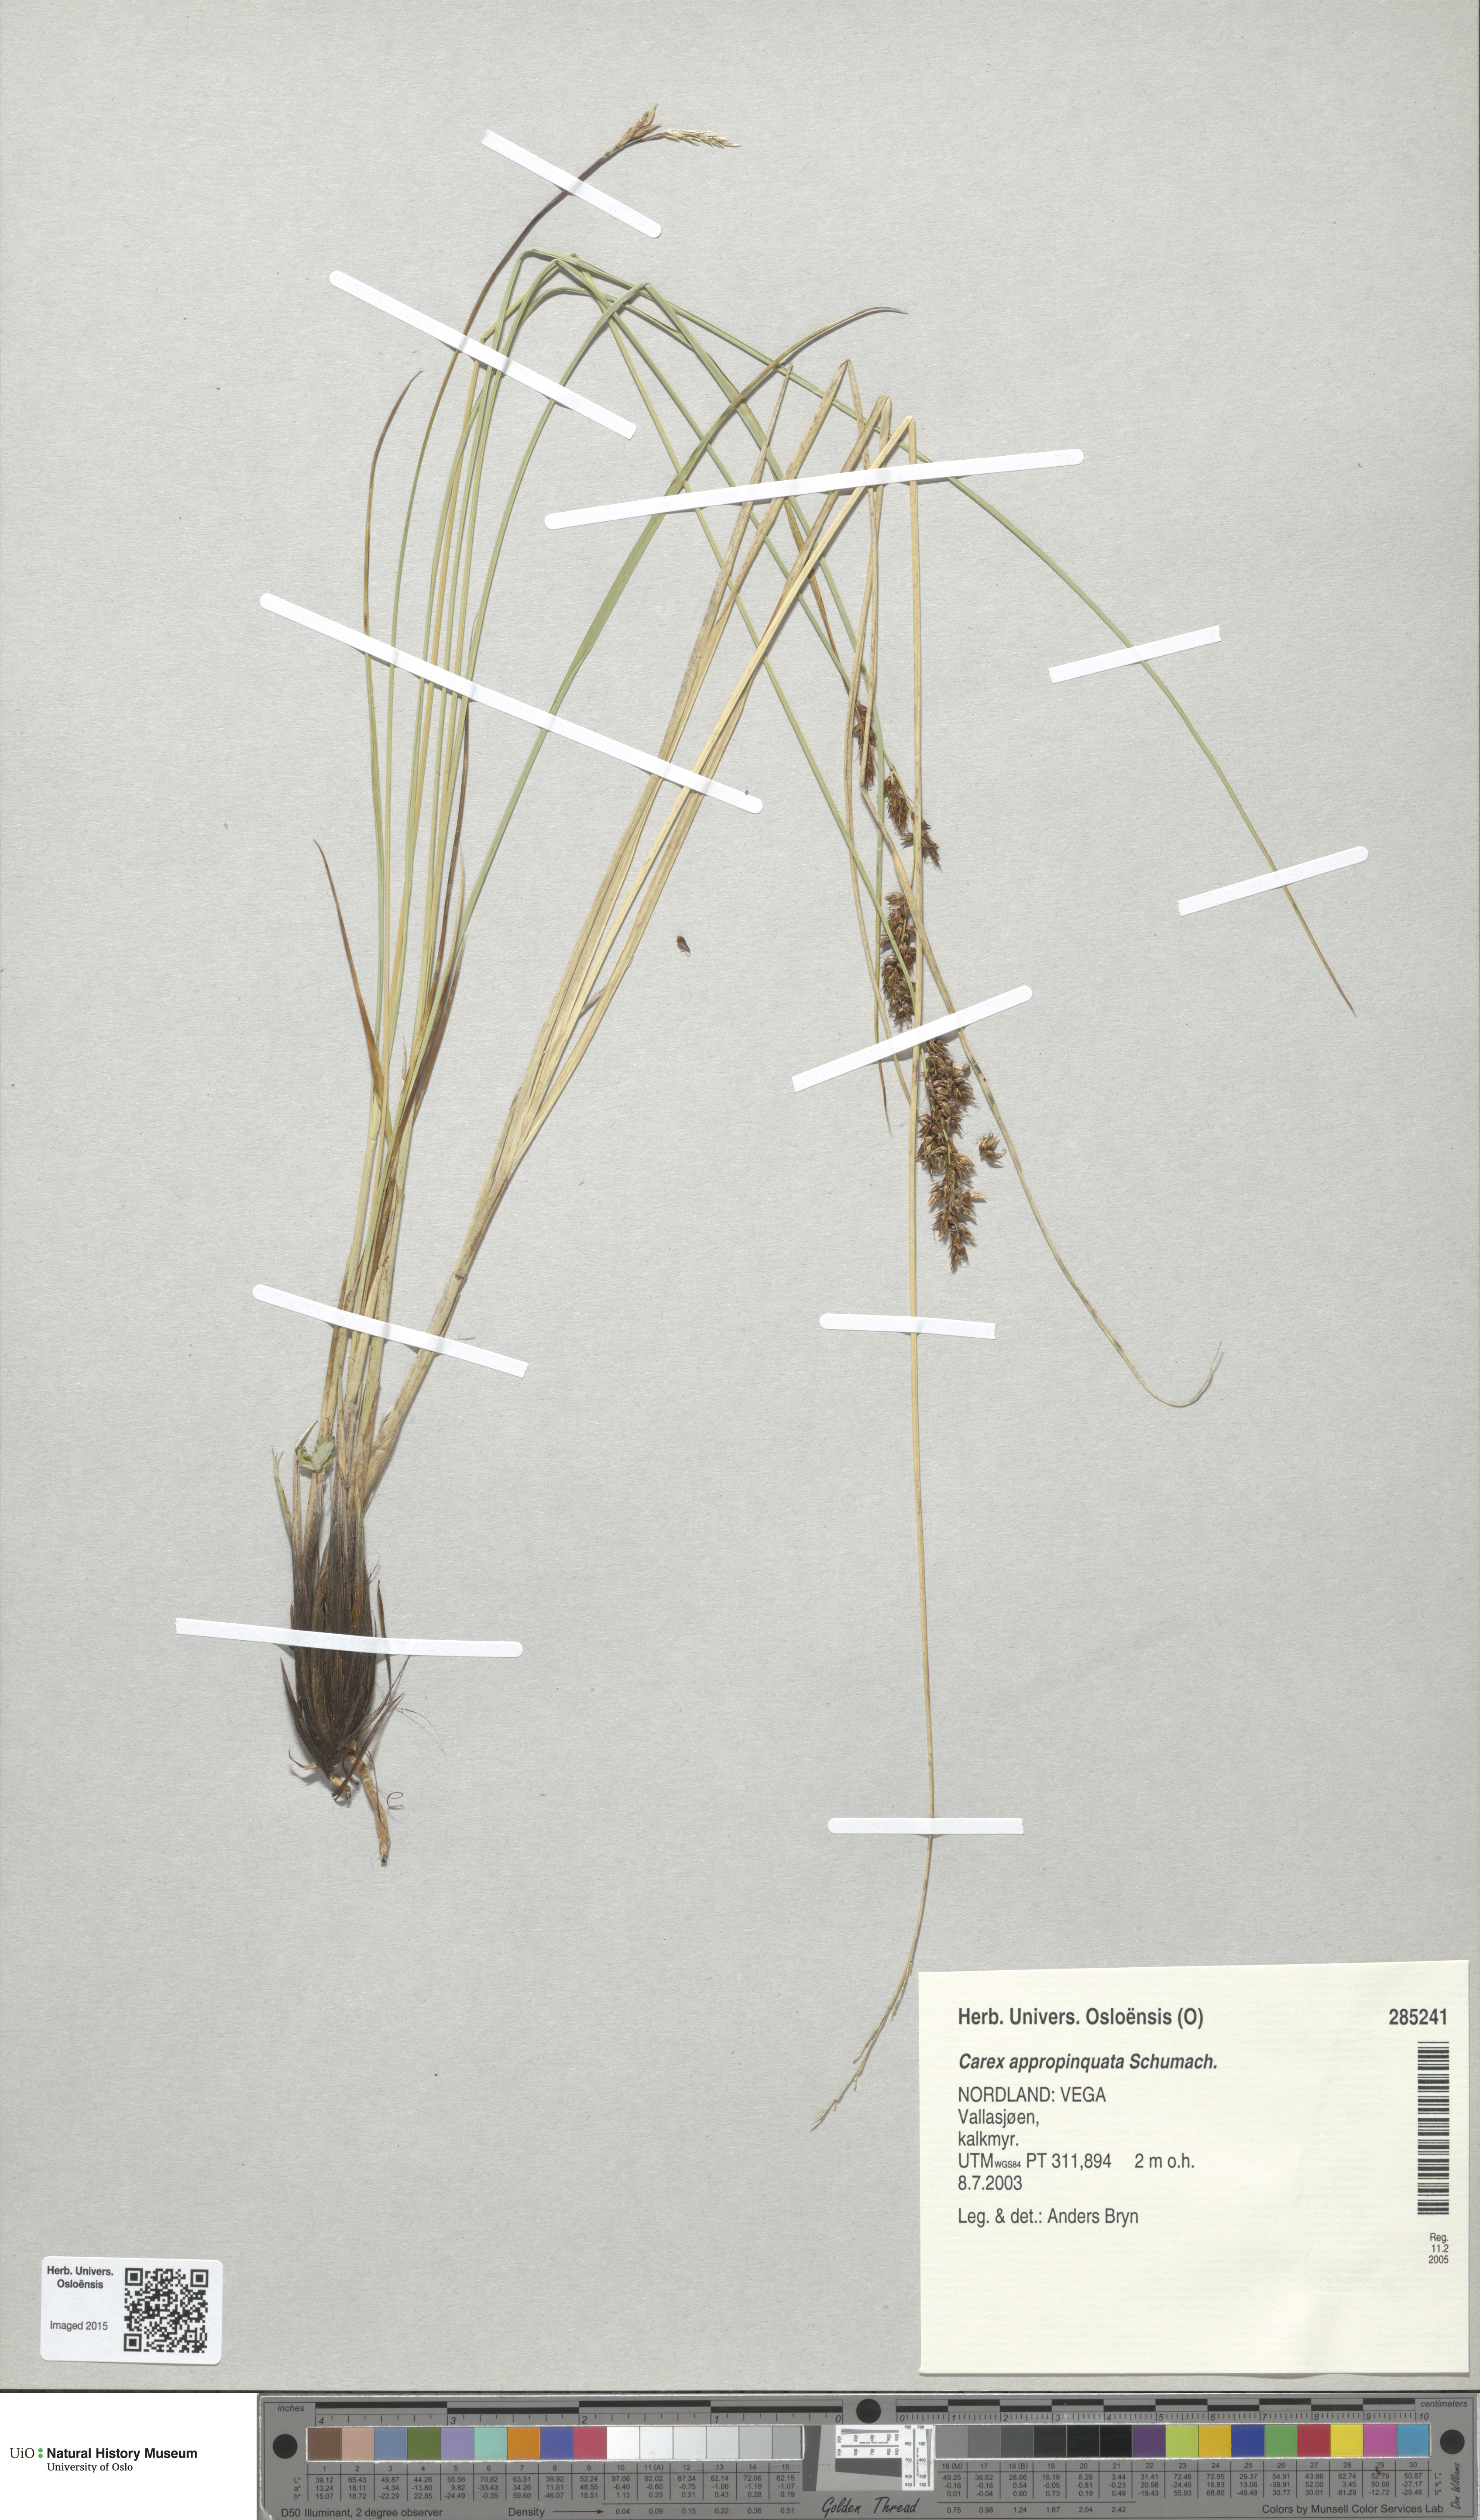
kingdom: Plantae
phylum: Tracheophyta
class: Liliopsida
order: Poales
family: Cyperaceae
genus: Carex
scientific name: Carex appropinquata
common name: Fibrous tussock-sedge
